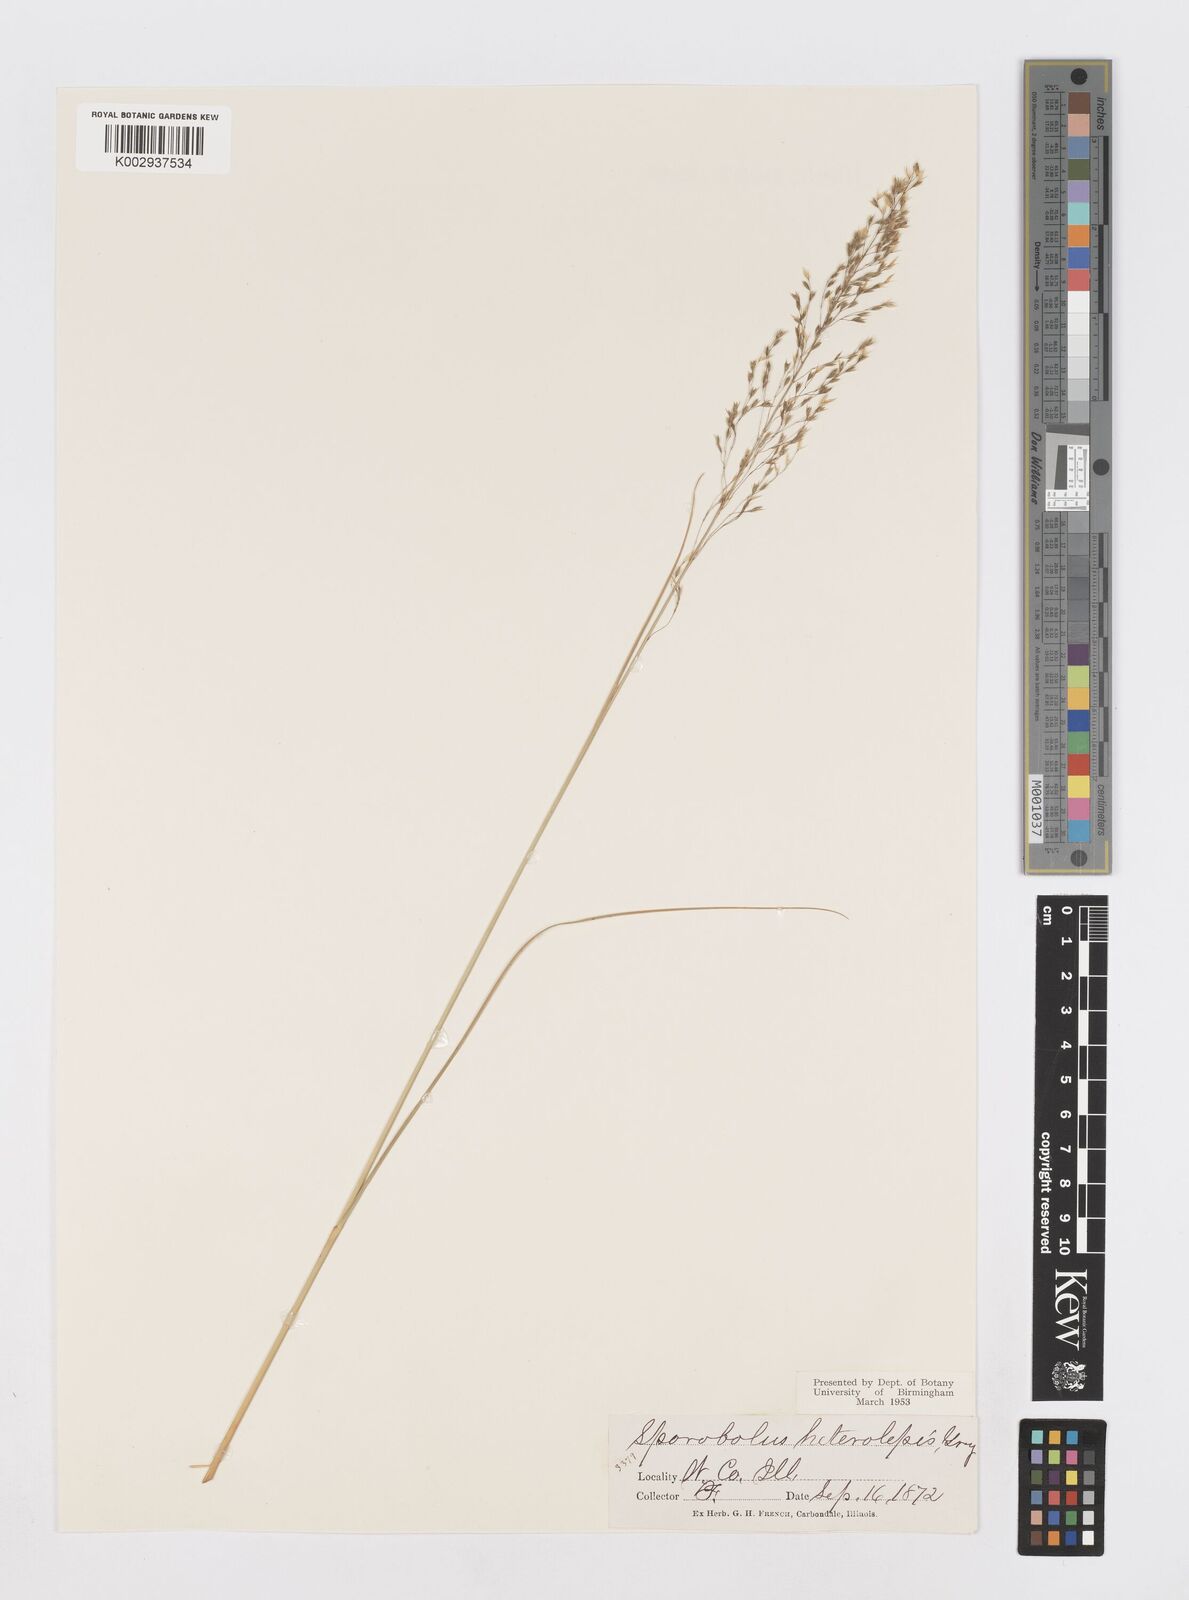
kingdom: Plantae
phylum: Tracheophyta
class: Liliopsida
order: Poales
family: Poaceae
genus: Sporobolus
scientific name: Sporobolus heterolepis
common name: Prairie dropseed
